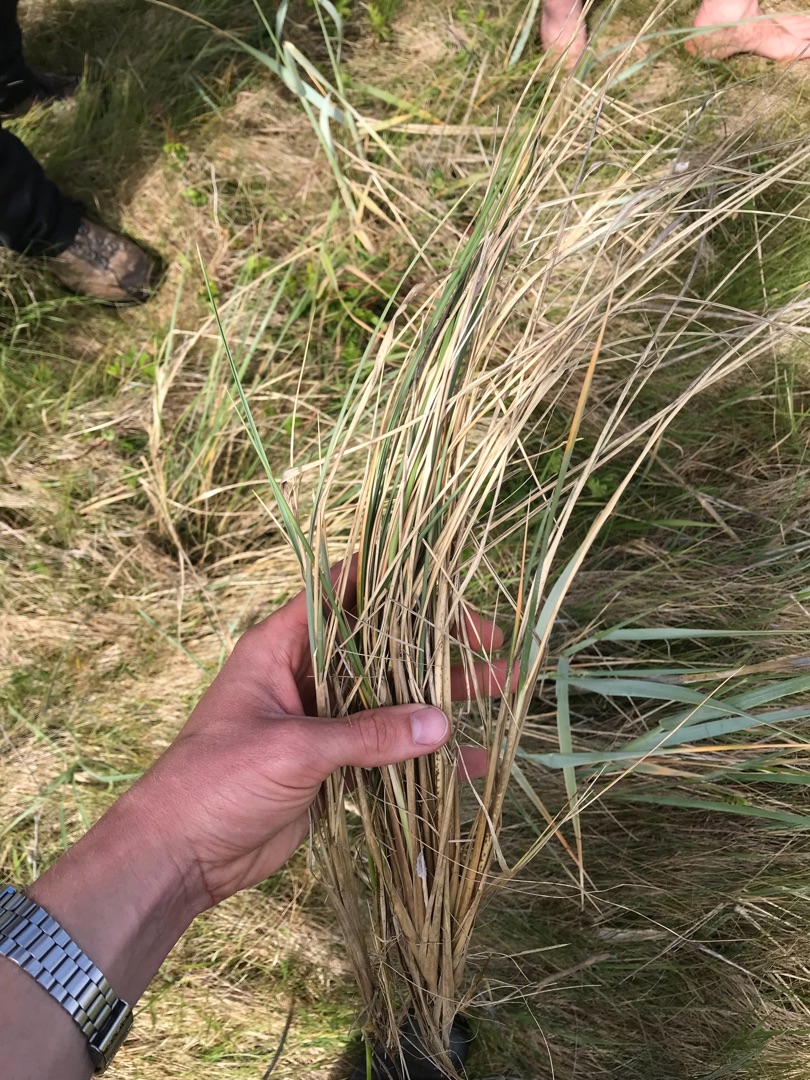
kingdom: Plantae
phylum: Tracheophyta
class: Liliopsida
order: Poales
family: Poaceae
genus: Calamagrostis
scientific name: Calamagrostis arenaria
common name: Sand-hjælme
